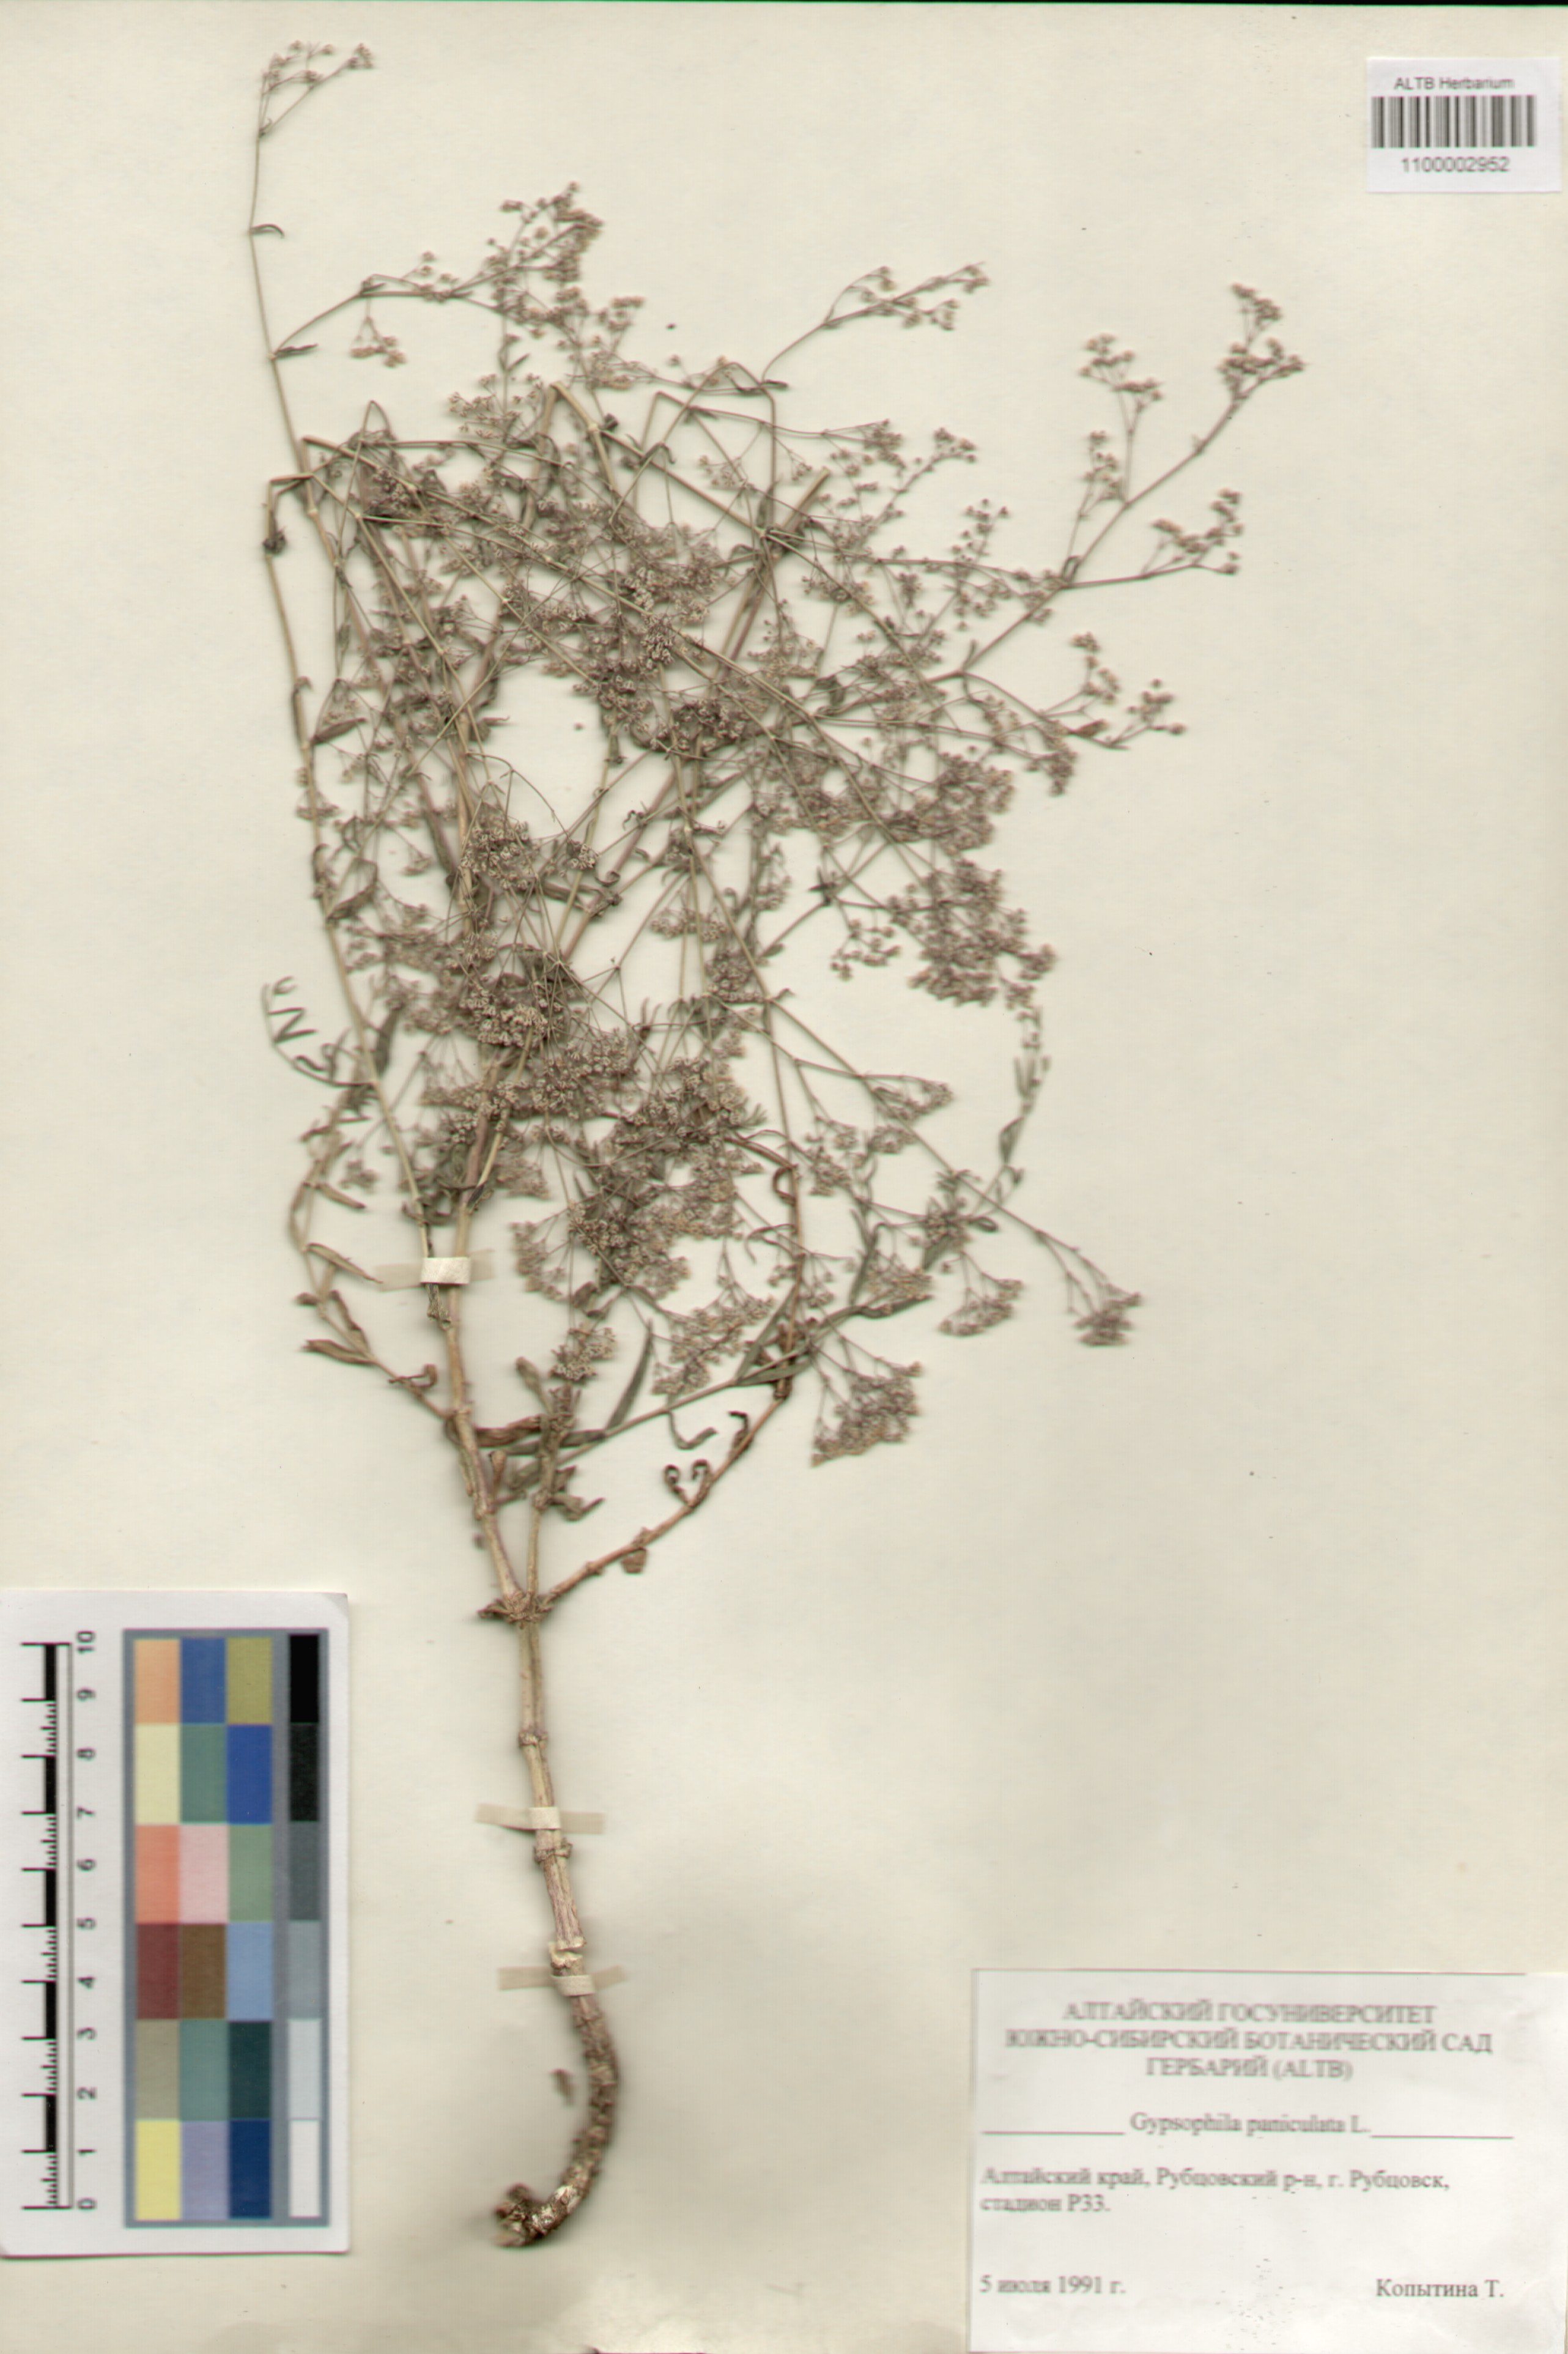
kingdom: Plantae
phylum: Tracheophyta
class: Magnoliopsida
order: Caryophyllales
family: Caryophyllaceae
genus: Gypsophila
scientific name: Gypsophila paniculata
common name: Baby's-breath
